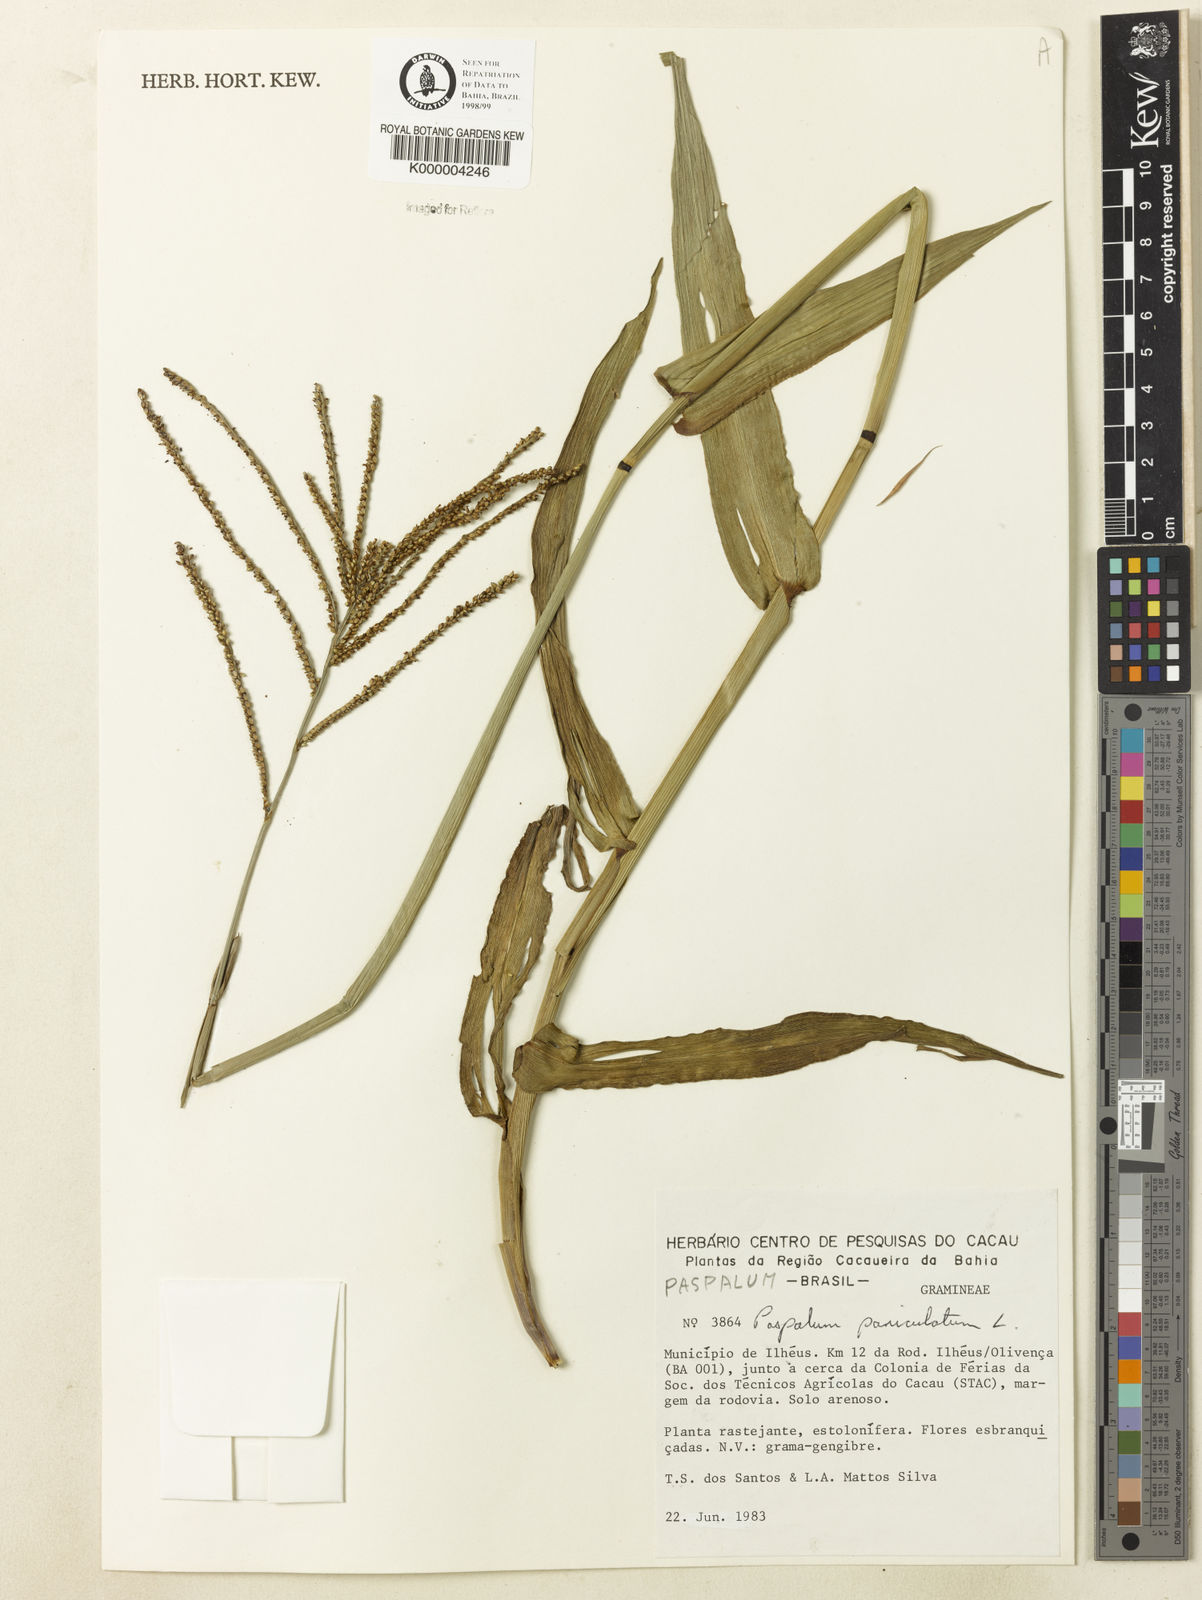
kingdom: Plantae
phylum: Tracheophyta
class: Liliopsida
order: Poales
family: Poaceae
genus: Paspalum
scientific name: Paspalum paniculatum
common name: Arrocillo
